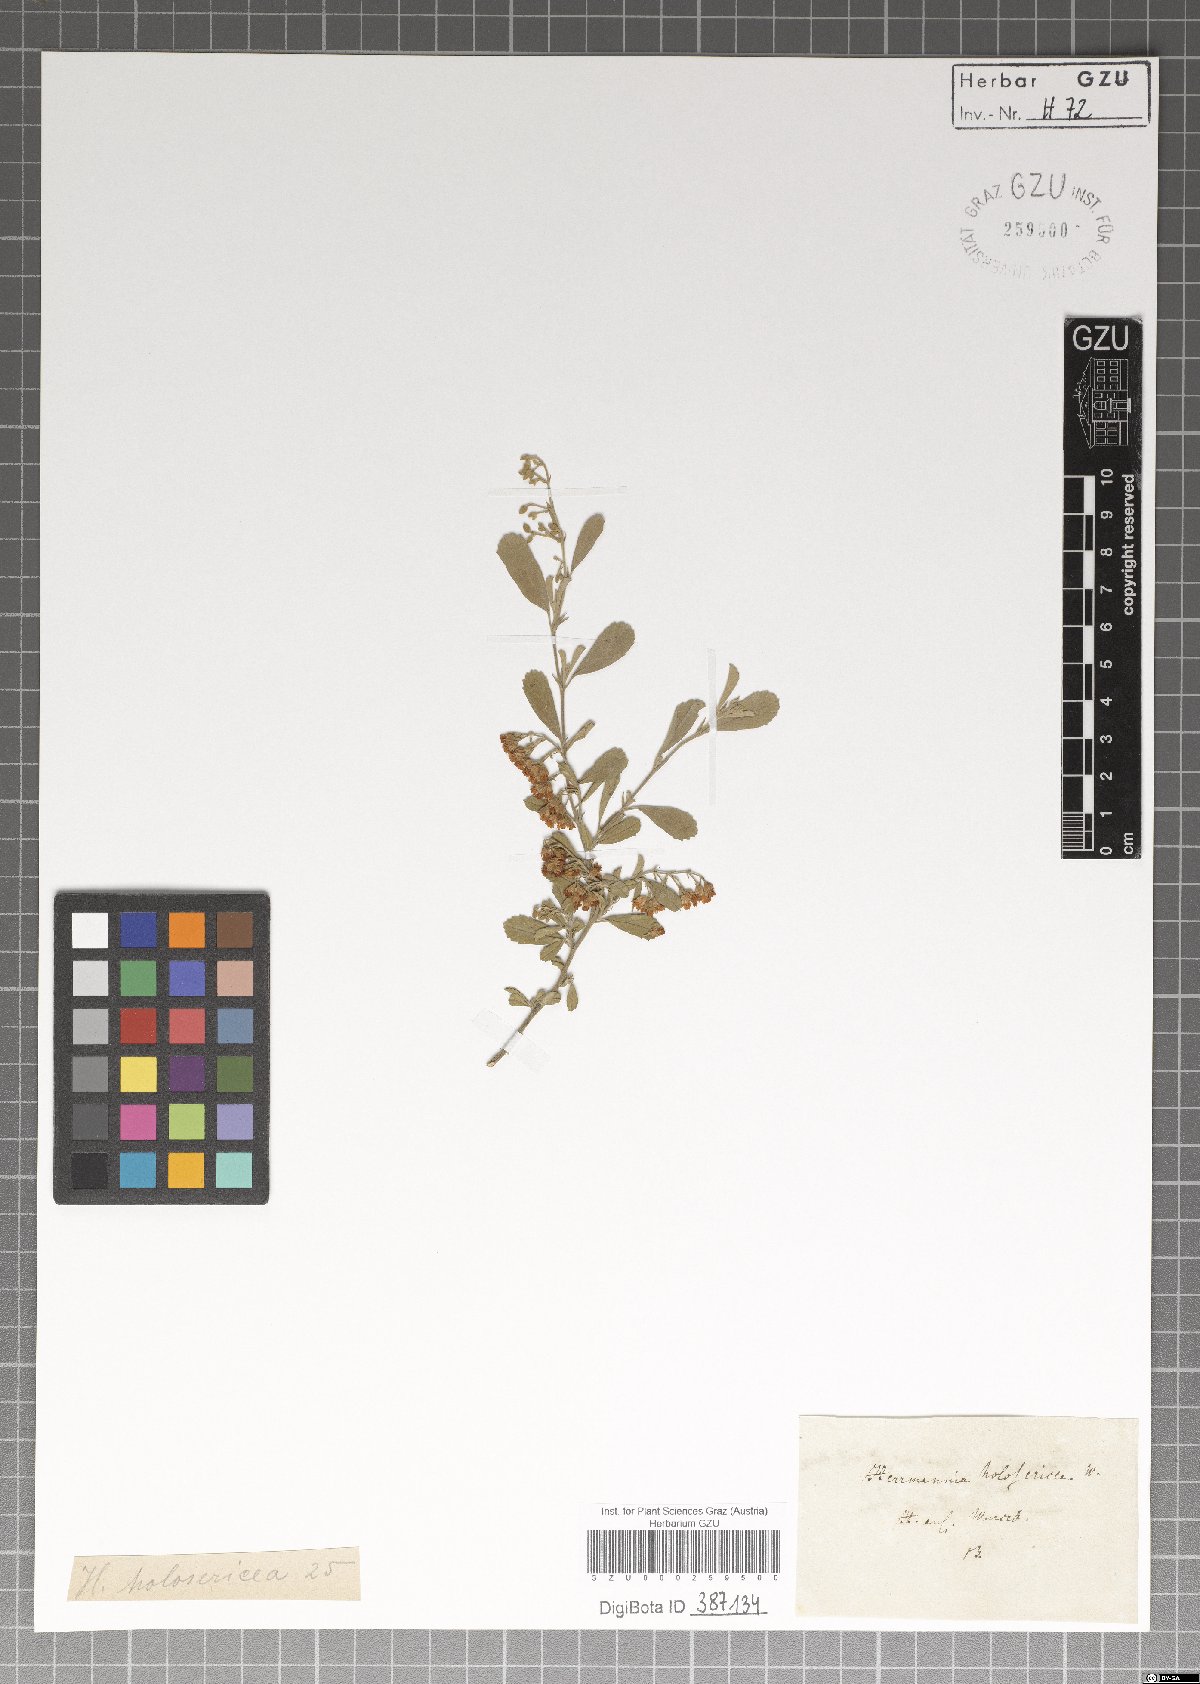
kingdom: Plantae
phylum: Tracheophyta
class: Magnoliopsida
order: Malvales
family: Malvaceae
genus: Hermannia
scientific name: Hermannia holosericea
